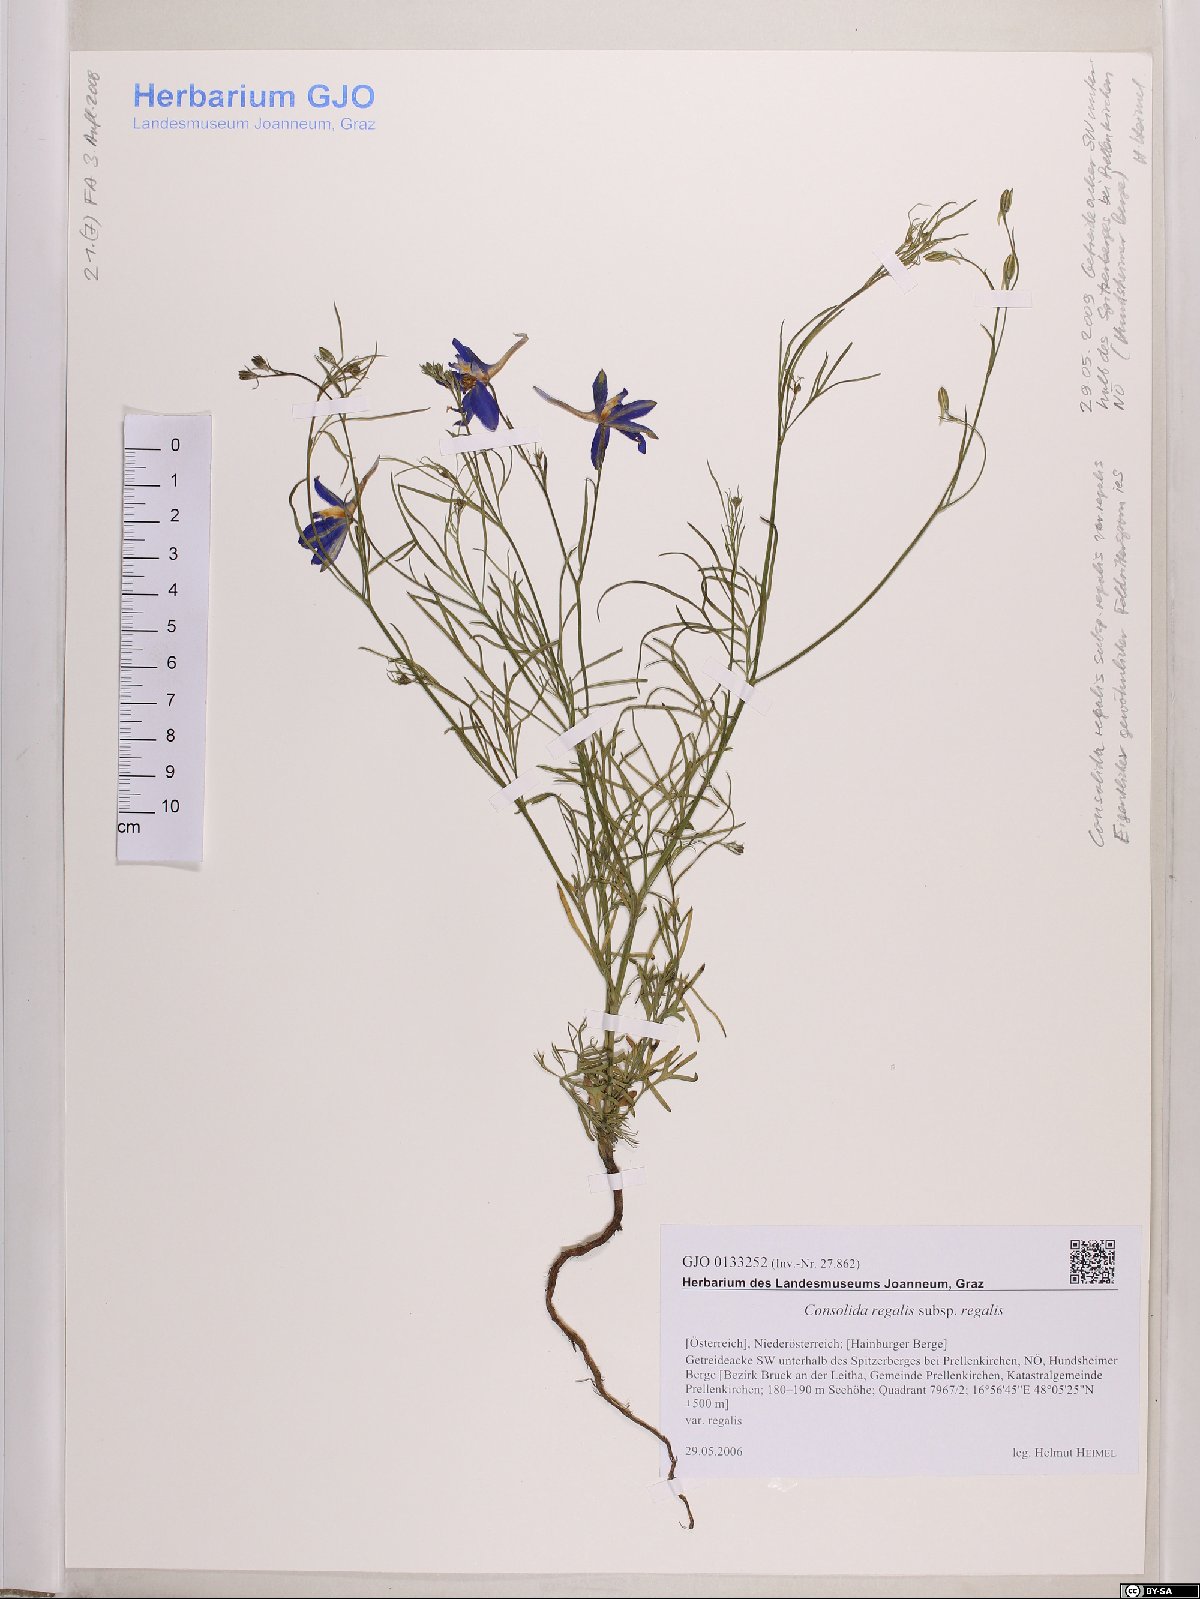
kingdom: Plantae
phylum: Tracheophyta
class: Magnoliopsida
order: Ranunculales
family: Ranunculaceae
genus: Delphinium
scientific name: Delphinium consolida
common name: Branching larkspur
